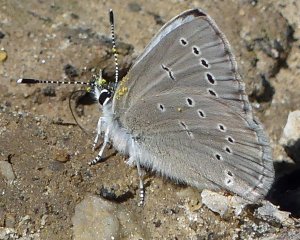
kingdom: Animalia
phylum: Arthropoda
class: Insecta
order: Lepidoptera
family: Lycaenidae
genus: Glaucopsyche
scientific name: Glaucopsyche lygdamus
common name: Silvery Blue
